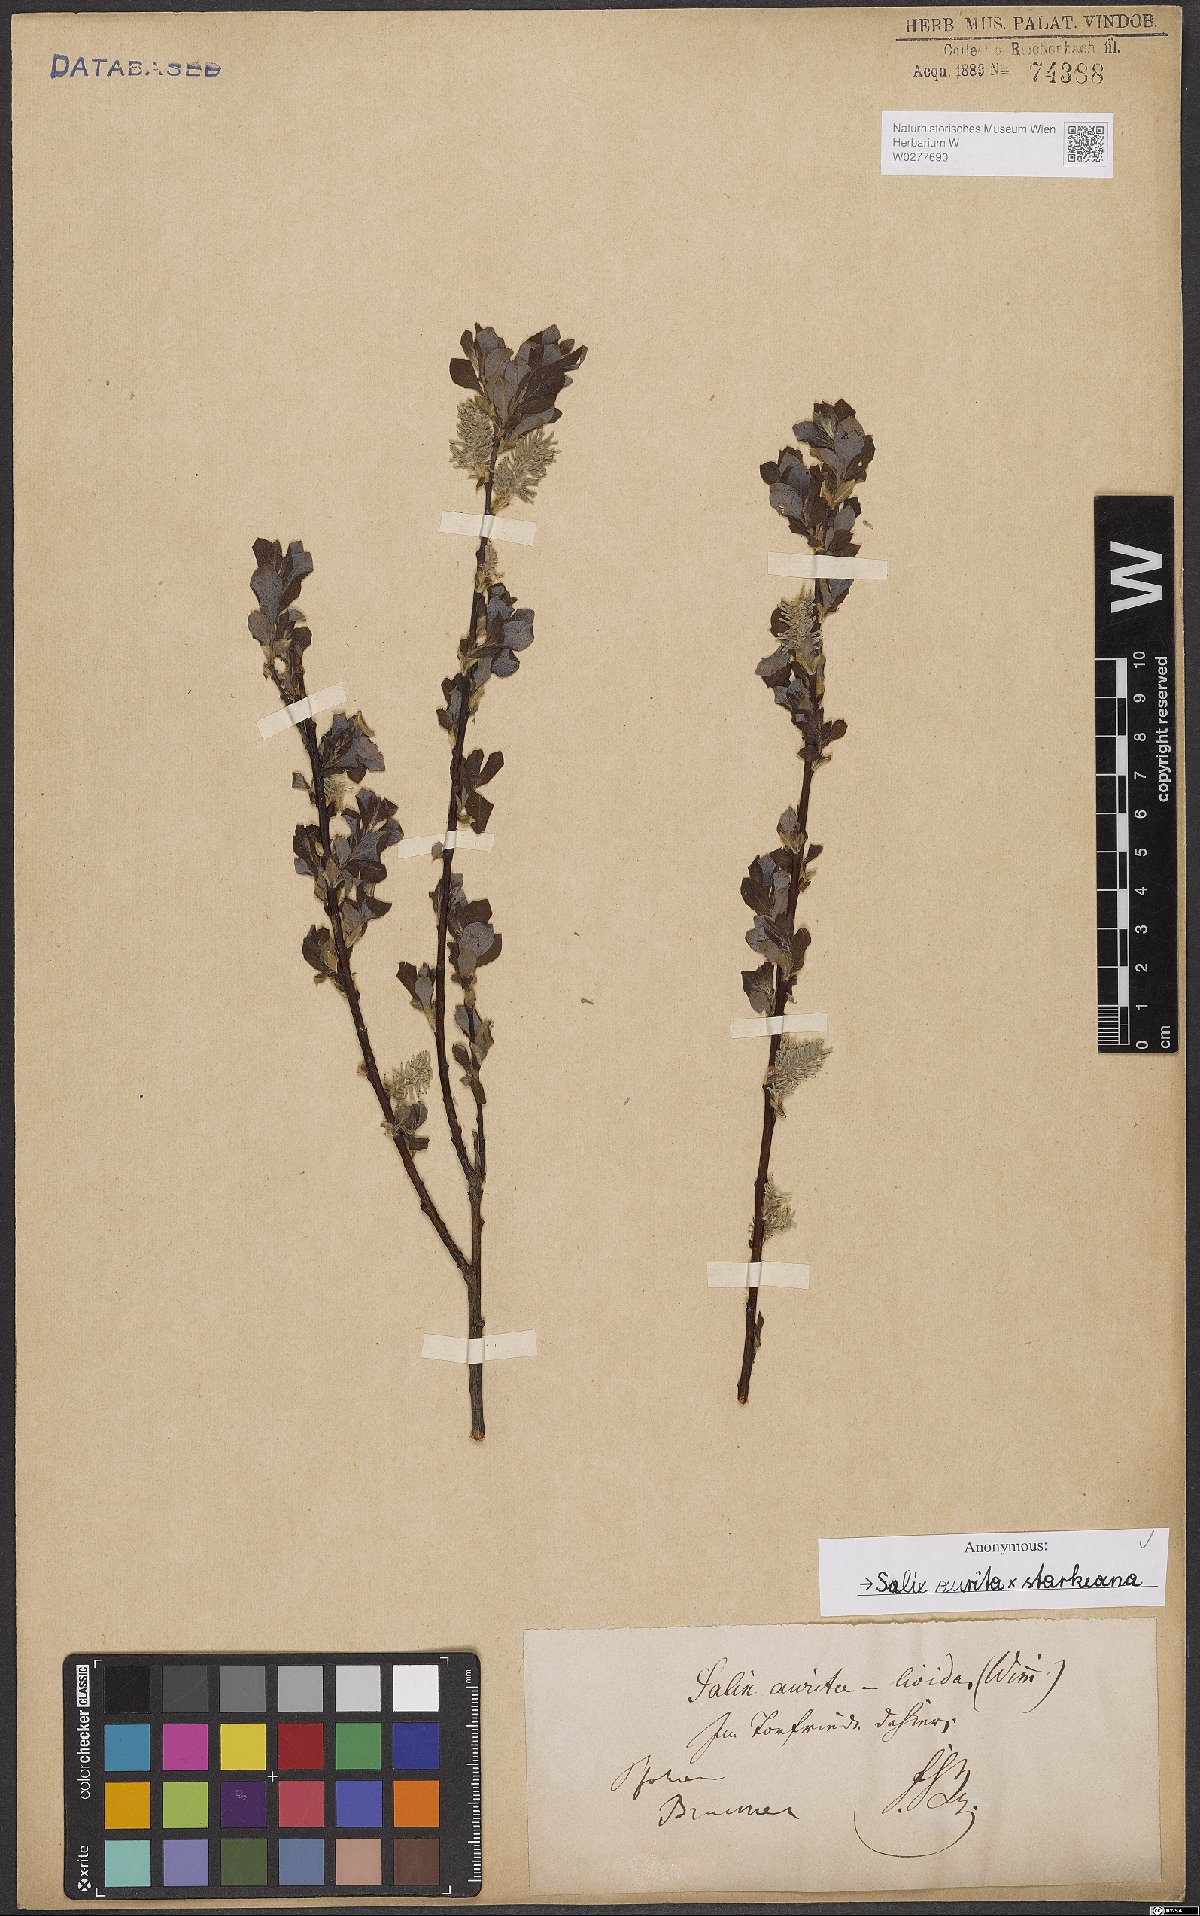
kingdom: Plantae
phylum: Tracheophyta
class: Magnoliopsida
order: Malpighiales
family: Salicaceae
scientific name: Salicaceae
